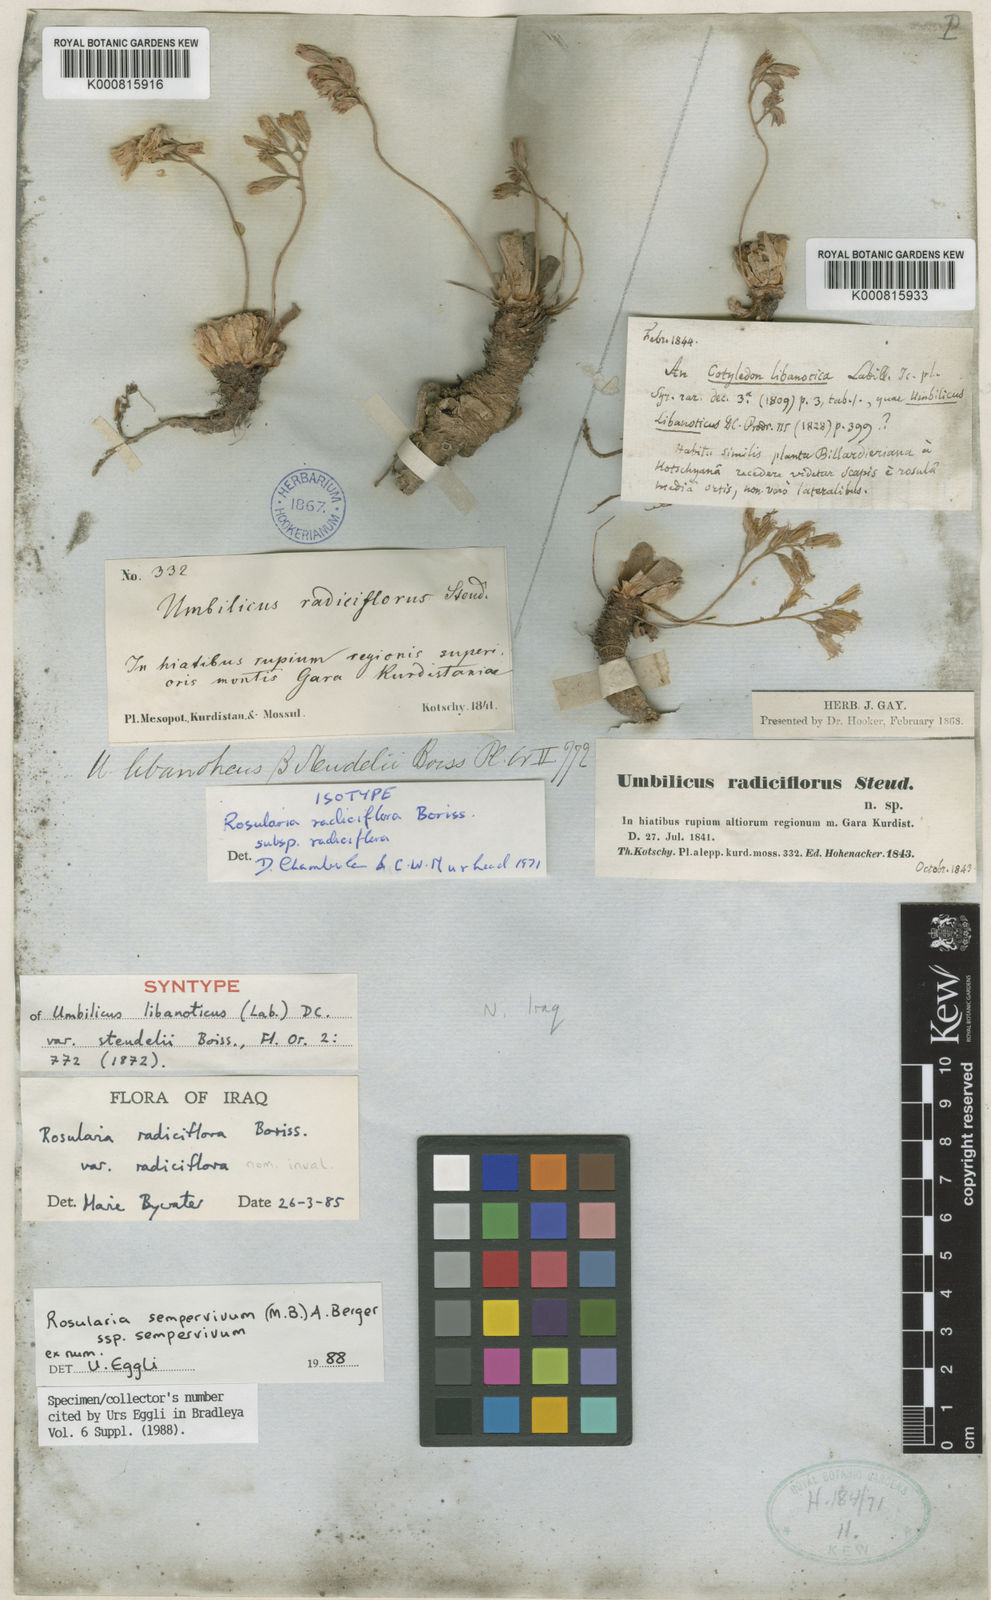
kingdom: Plantae
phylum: Tracheophyta
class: Magnoliopsida
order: Saxifragales
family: Crassulaceae
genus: Rosularia
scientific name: Rosularia sempervivum
